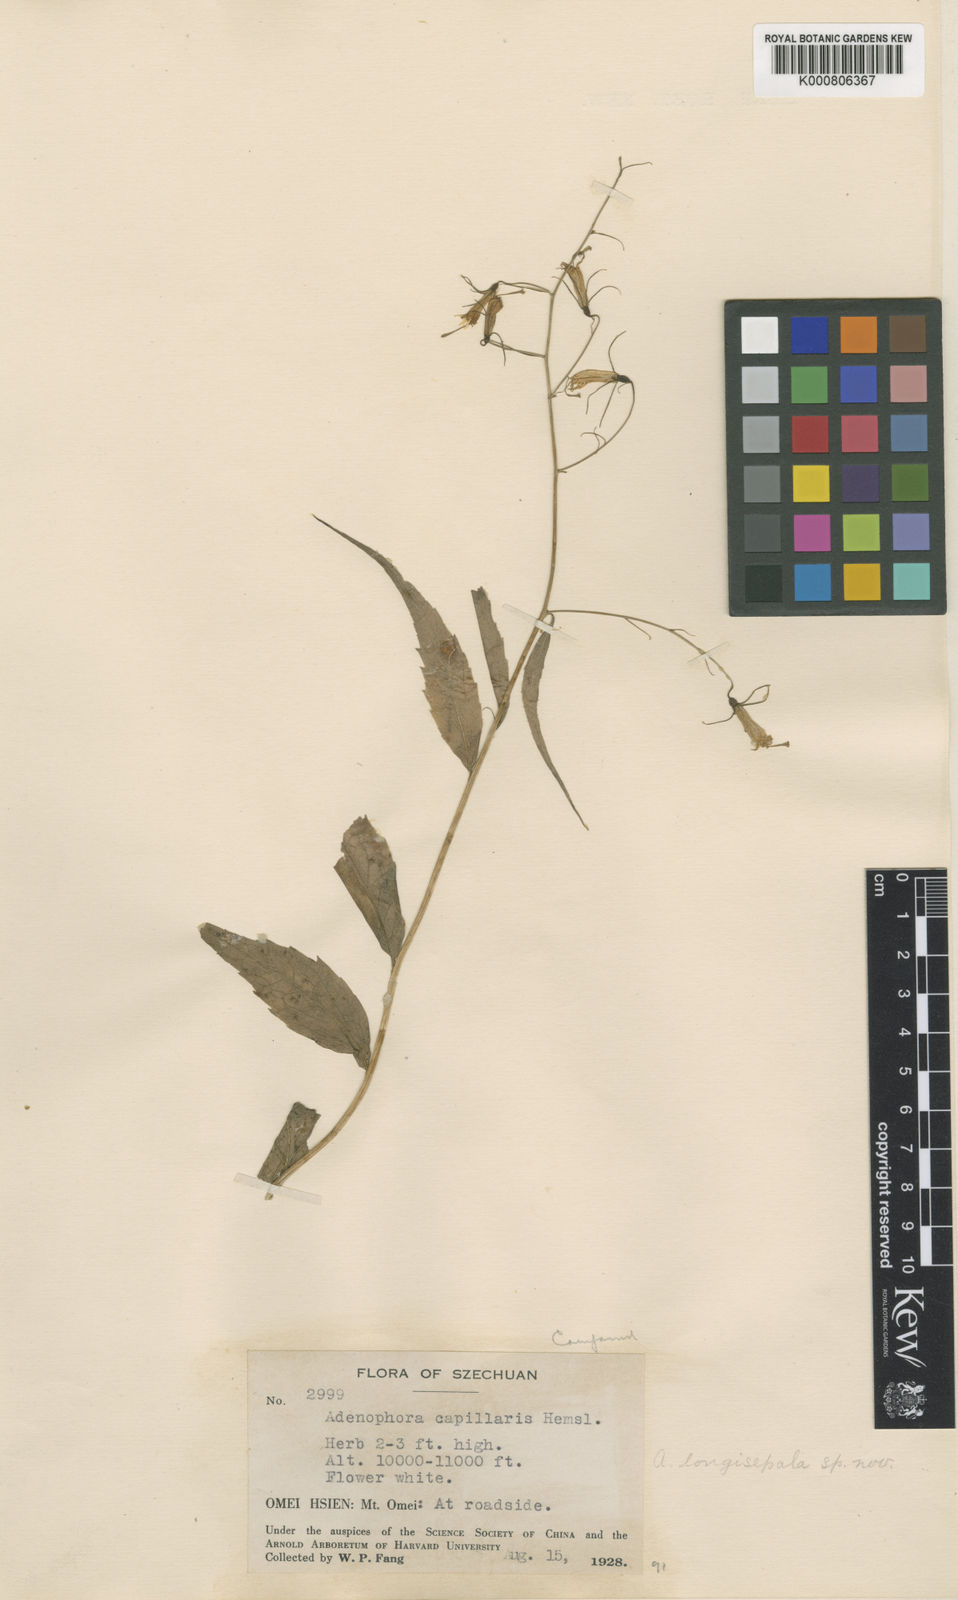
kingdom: Plantae
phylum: Tracheophyta
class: Magnoliopsida
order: Asterales
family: Campanulaceae
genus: Adenophora
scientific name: Adenophora capillaris
